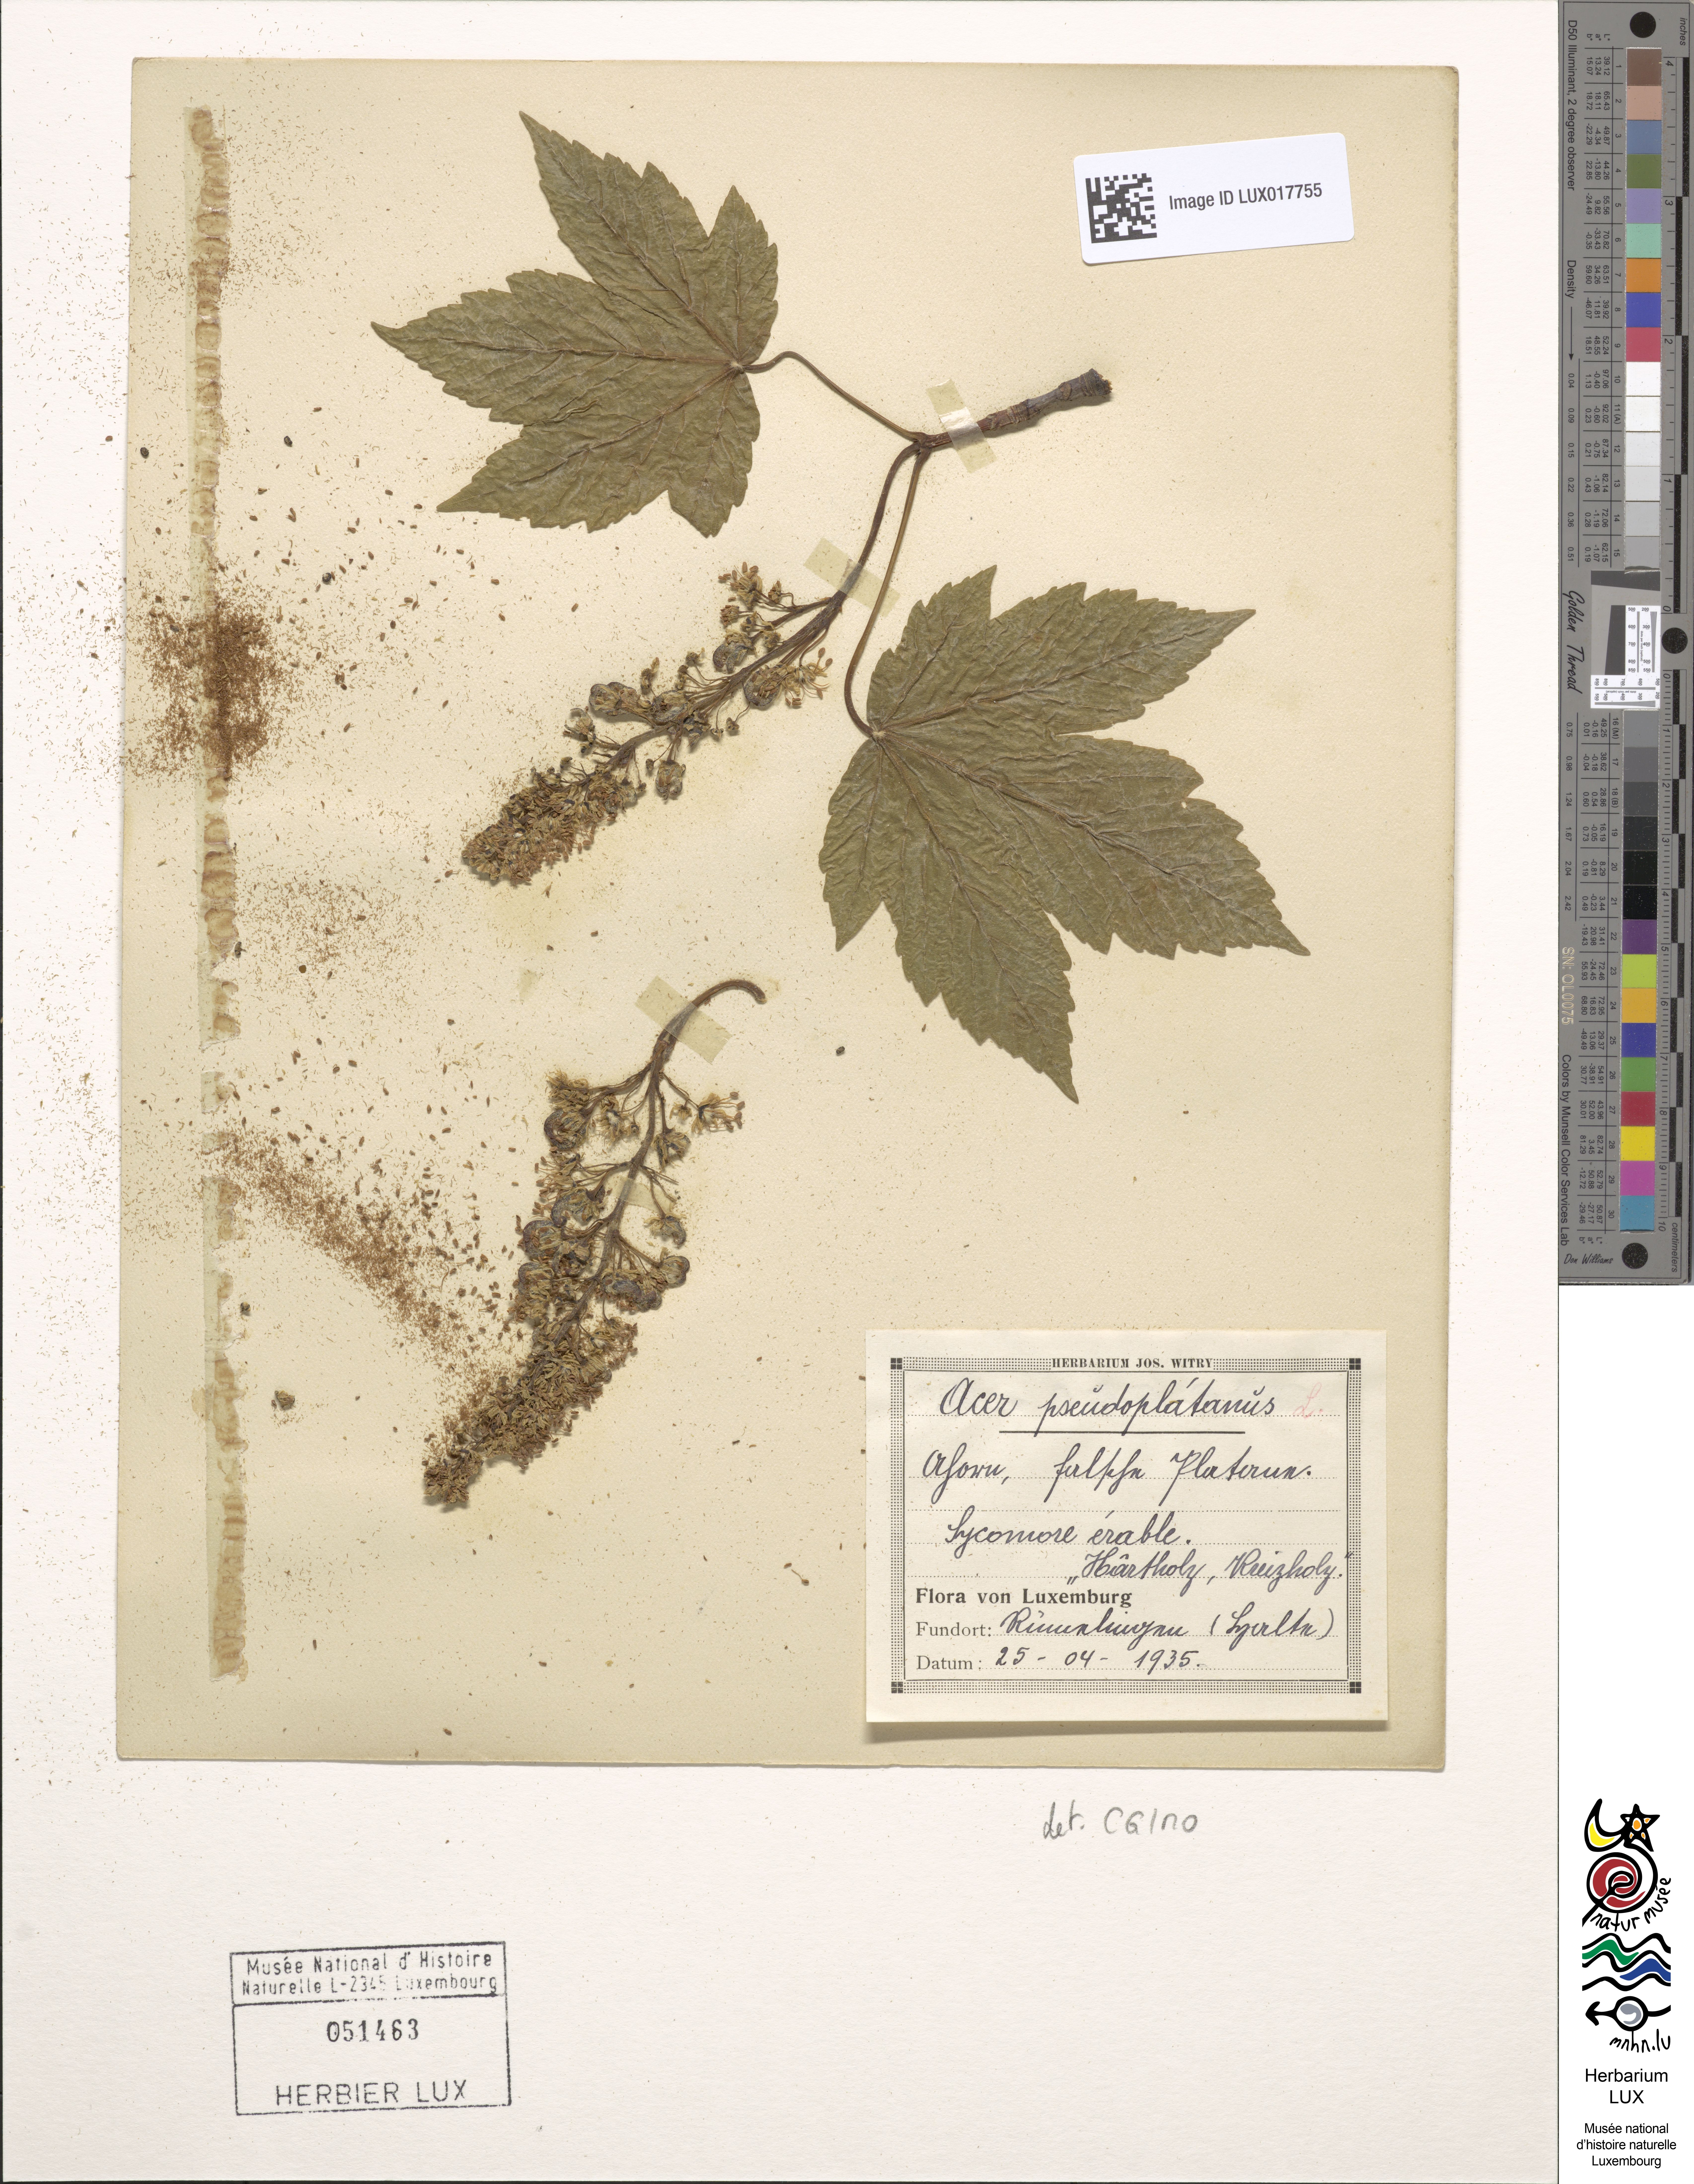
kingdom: Plantae
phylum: Tracheophyta
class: Magnoliopsida
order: Sapindales
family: Sapindaceae
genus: Acer
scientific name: Acer pseudoplatanus
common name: Sycamore
